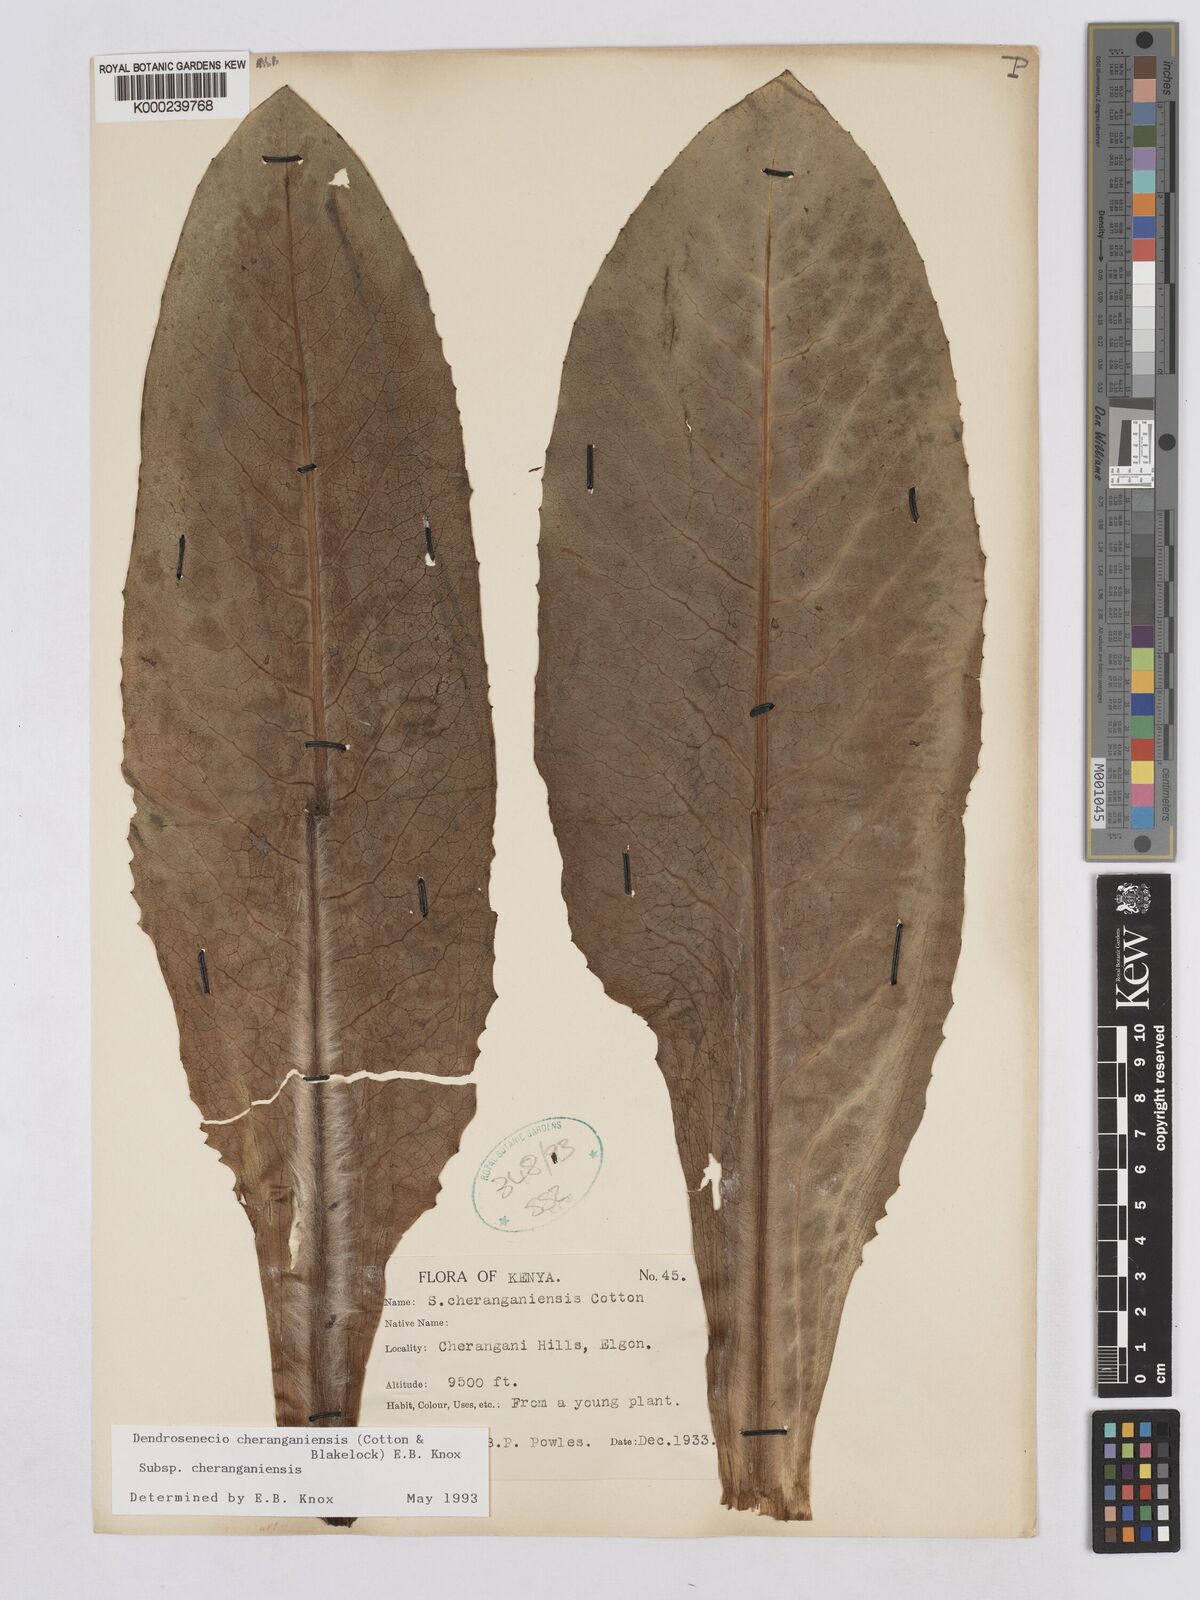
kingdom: Plantae
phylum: Tracheophyta
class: Magnoliopsida
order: Asterales
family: Asteraceae
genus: Dendrosenecio
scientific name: Dendrosenecio cheranganiensis
